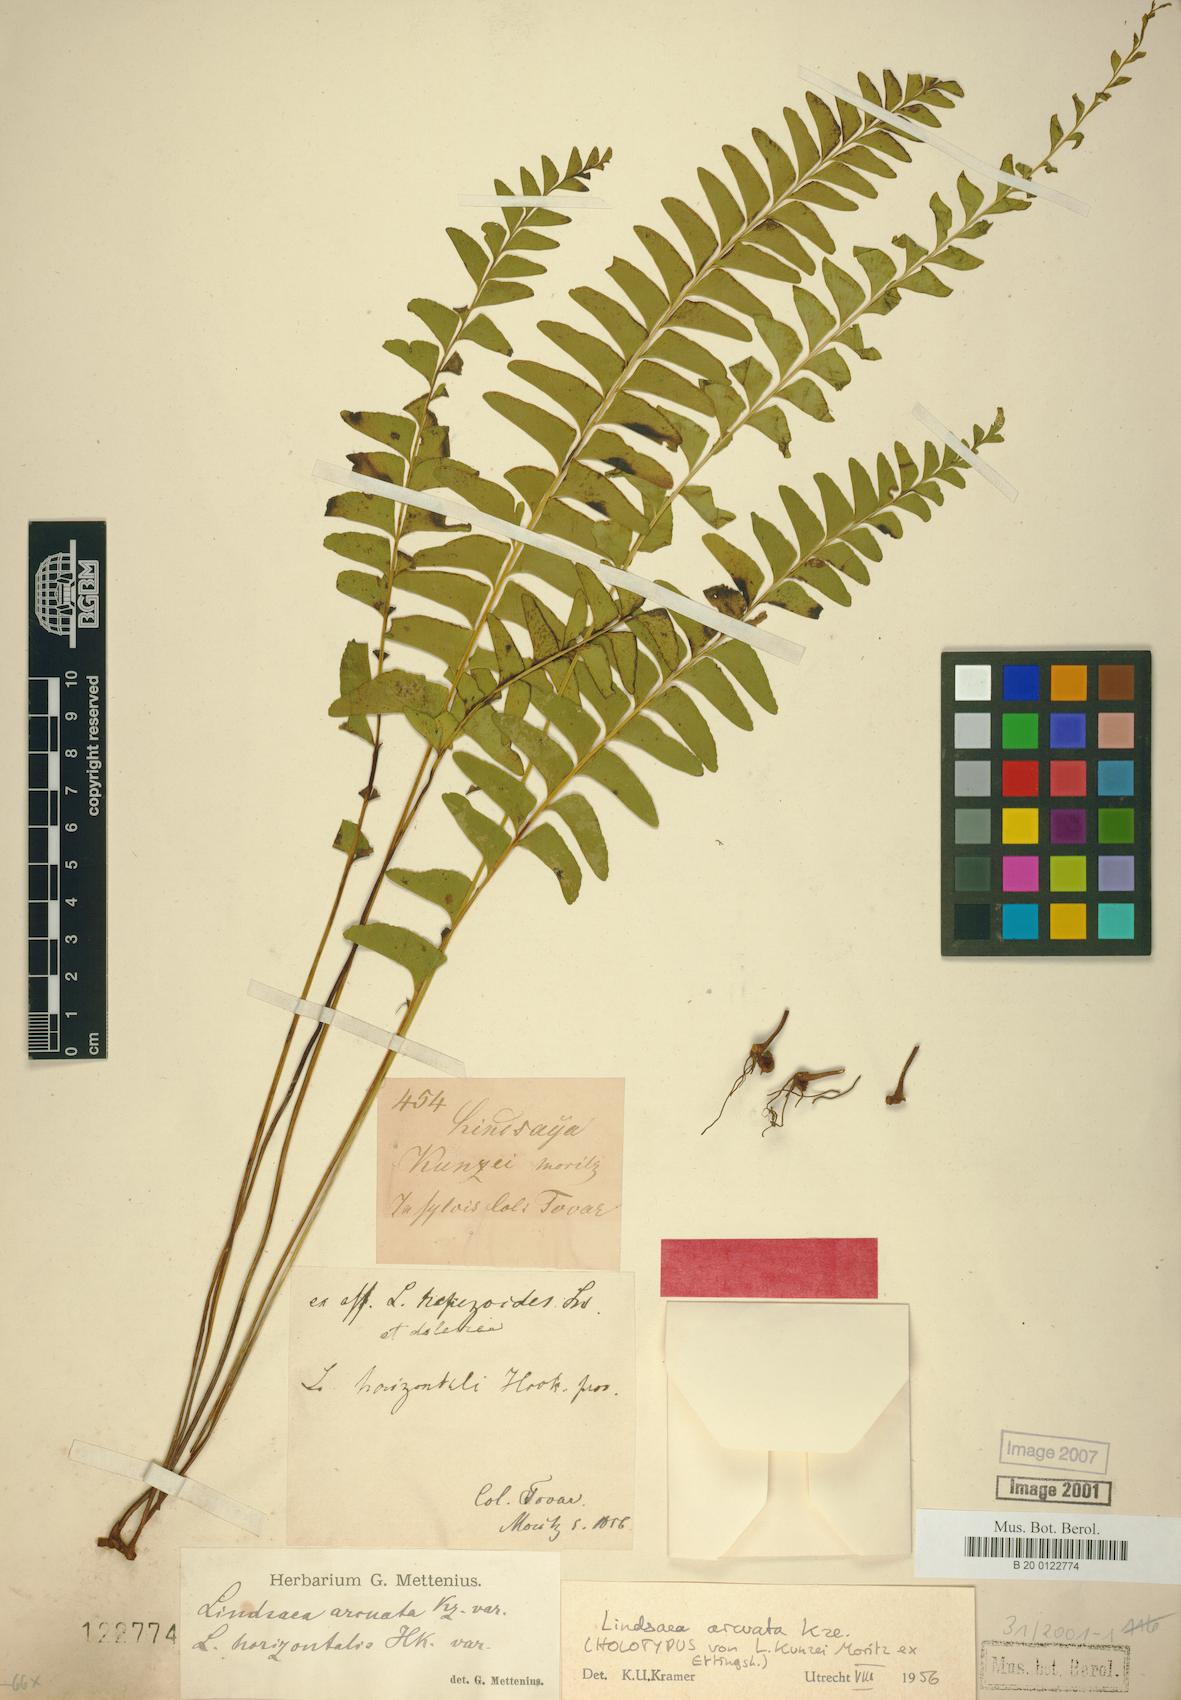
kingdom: Plantae
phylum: Tracheophyta
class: Polypodiopsida
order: Polypodiales
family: Lindsaeaceae
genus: Lindsaea
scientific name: Lindsaea arcuata
